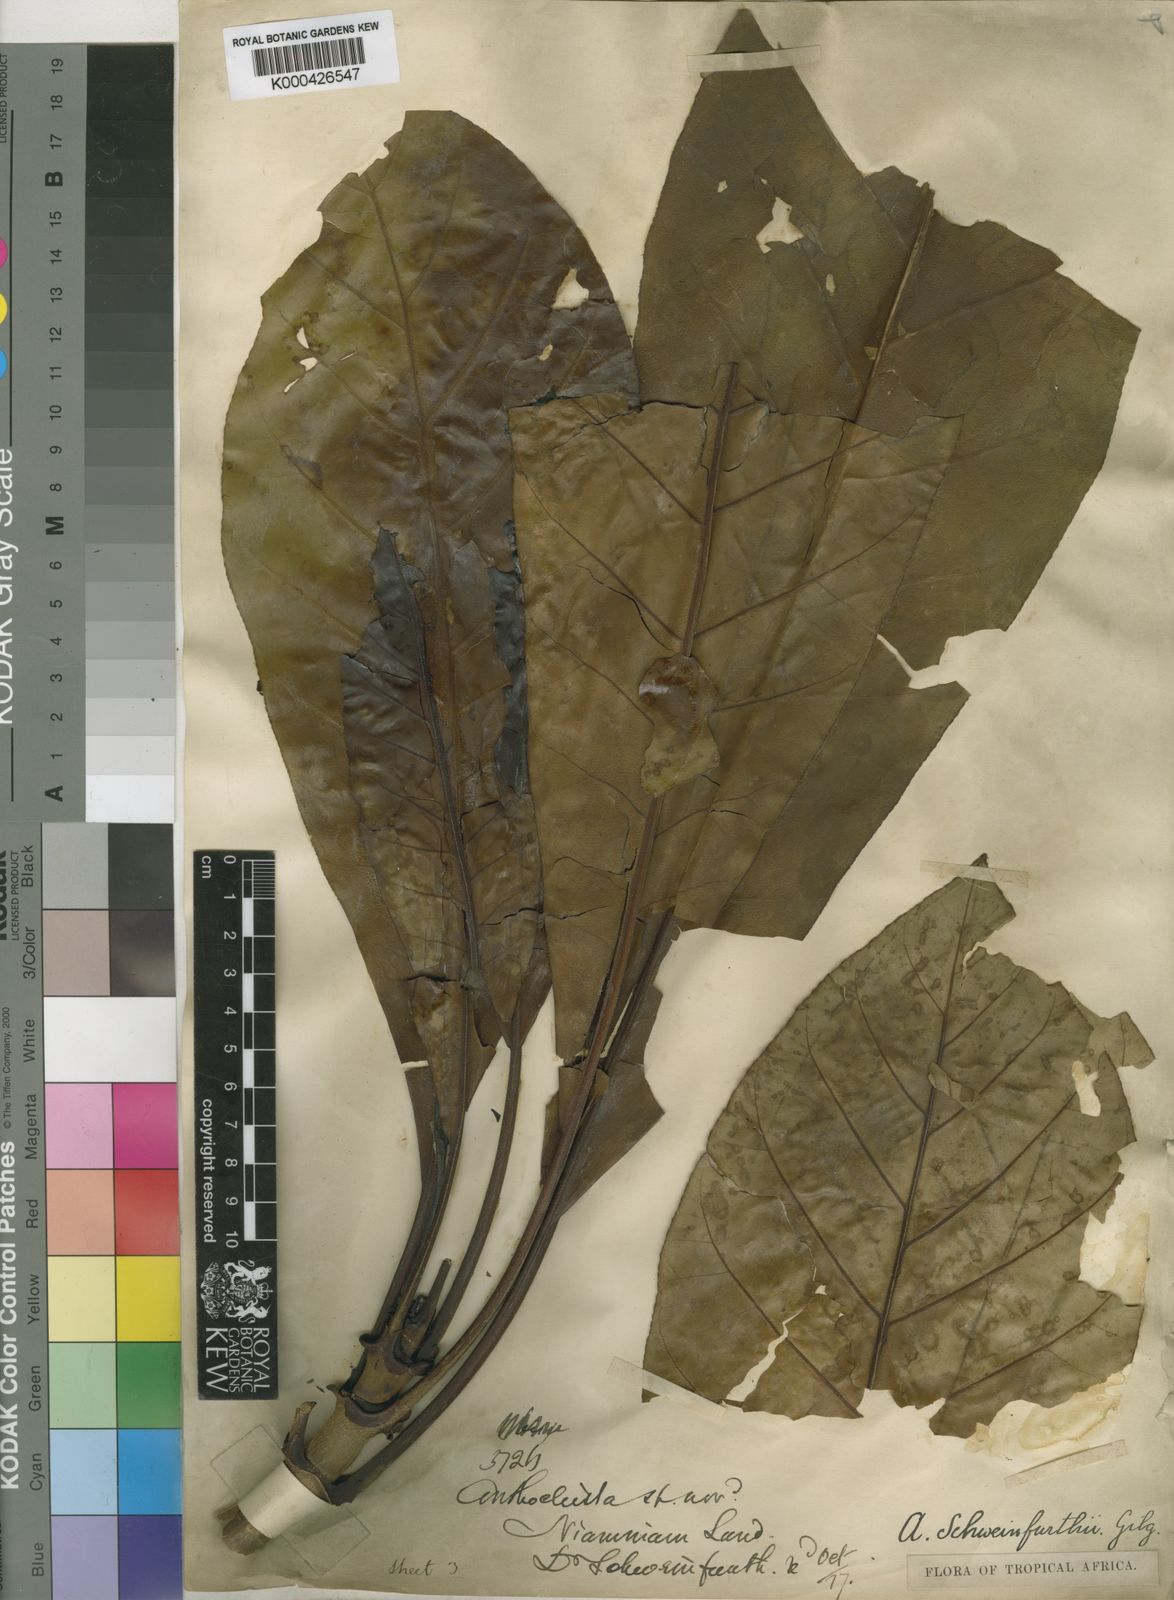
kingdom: Plantae
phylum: Tracheophyta
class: Magnoliopsida
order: Gentianales
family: Gentianaceae
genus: Anthocleista
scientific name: Anthocleista schweinfurthii
